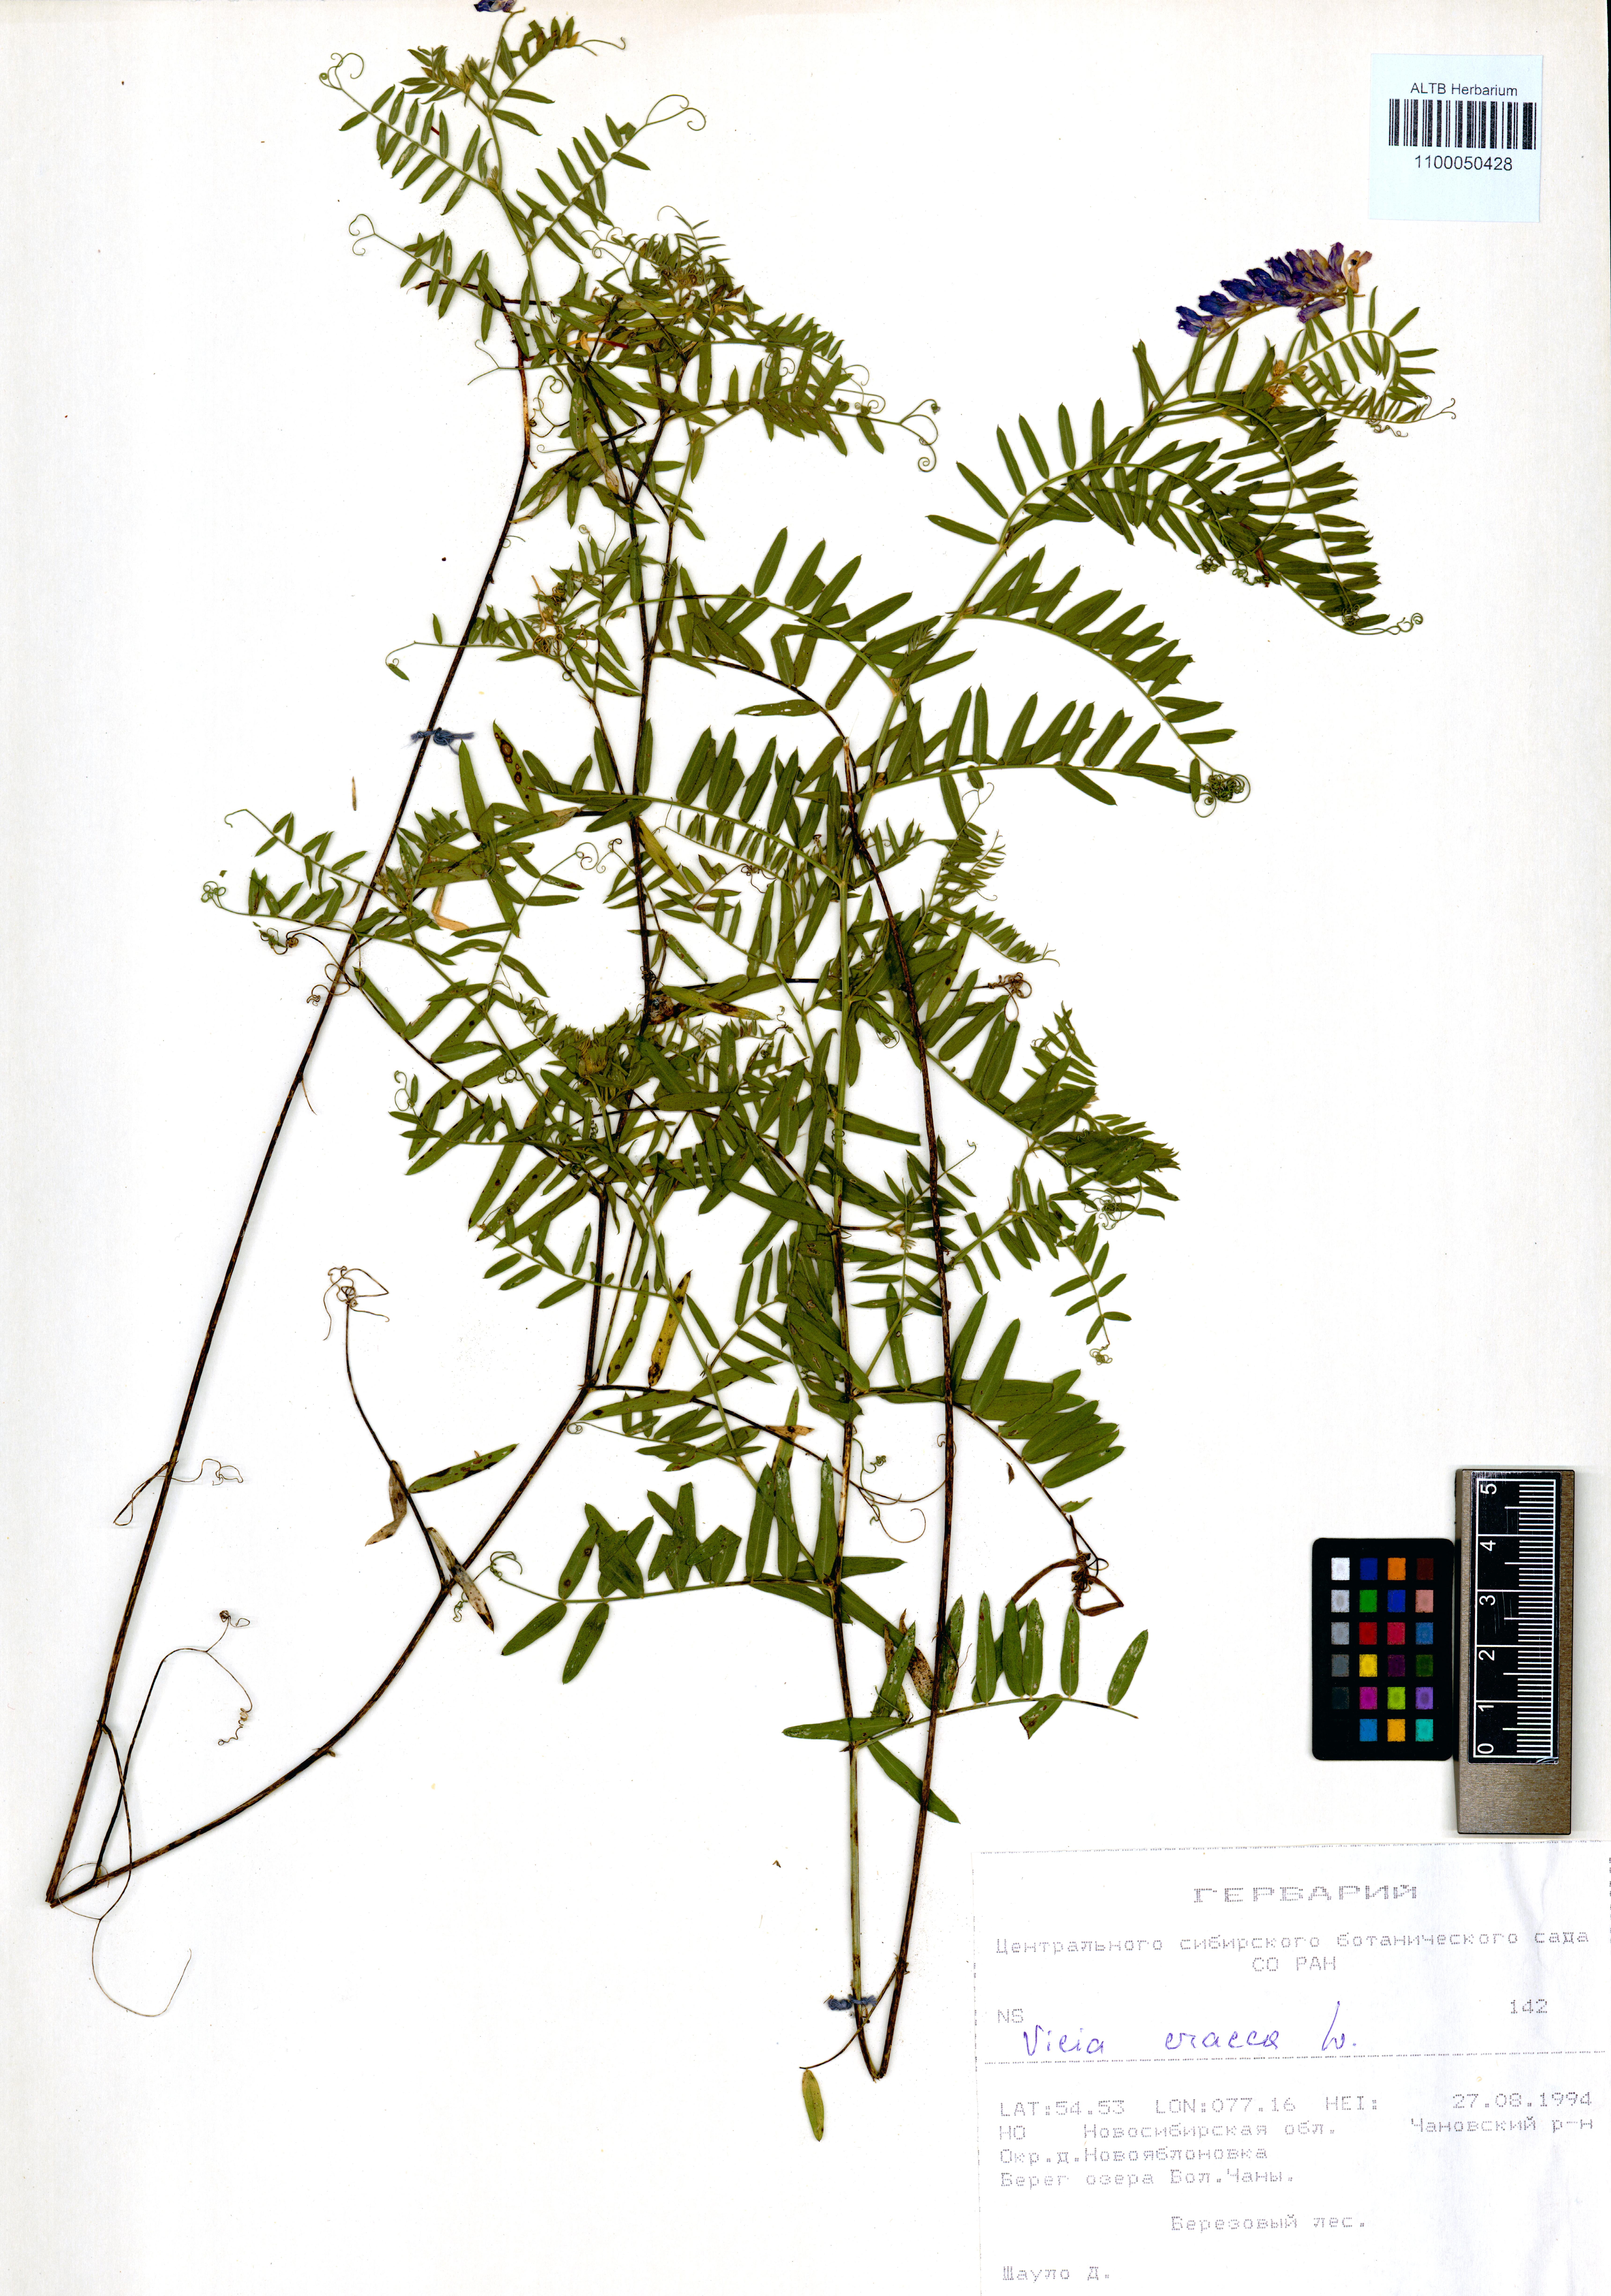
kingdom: Plantae
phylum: Tracheophyta
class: Magnoliopsida
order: Fabales
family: Fabaceae
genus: Vicia
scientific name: Vicia cracca
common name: Bird vetch
